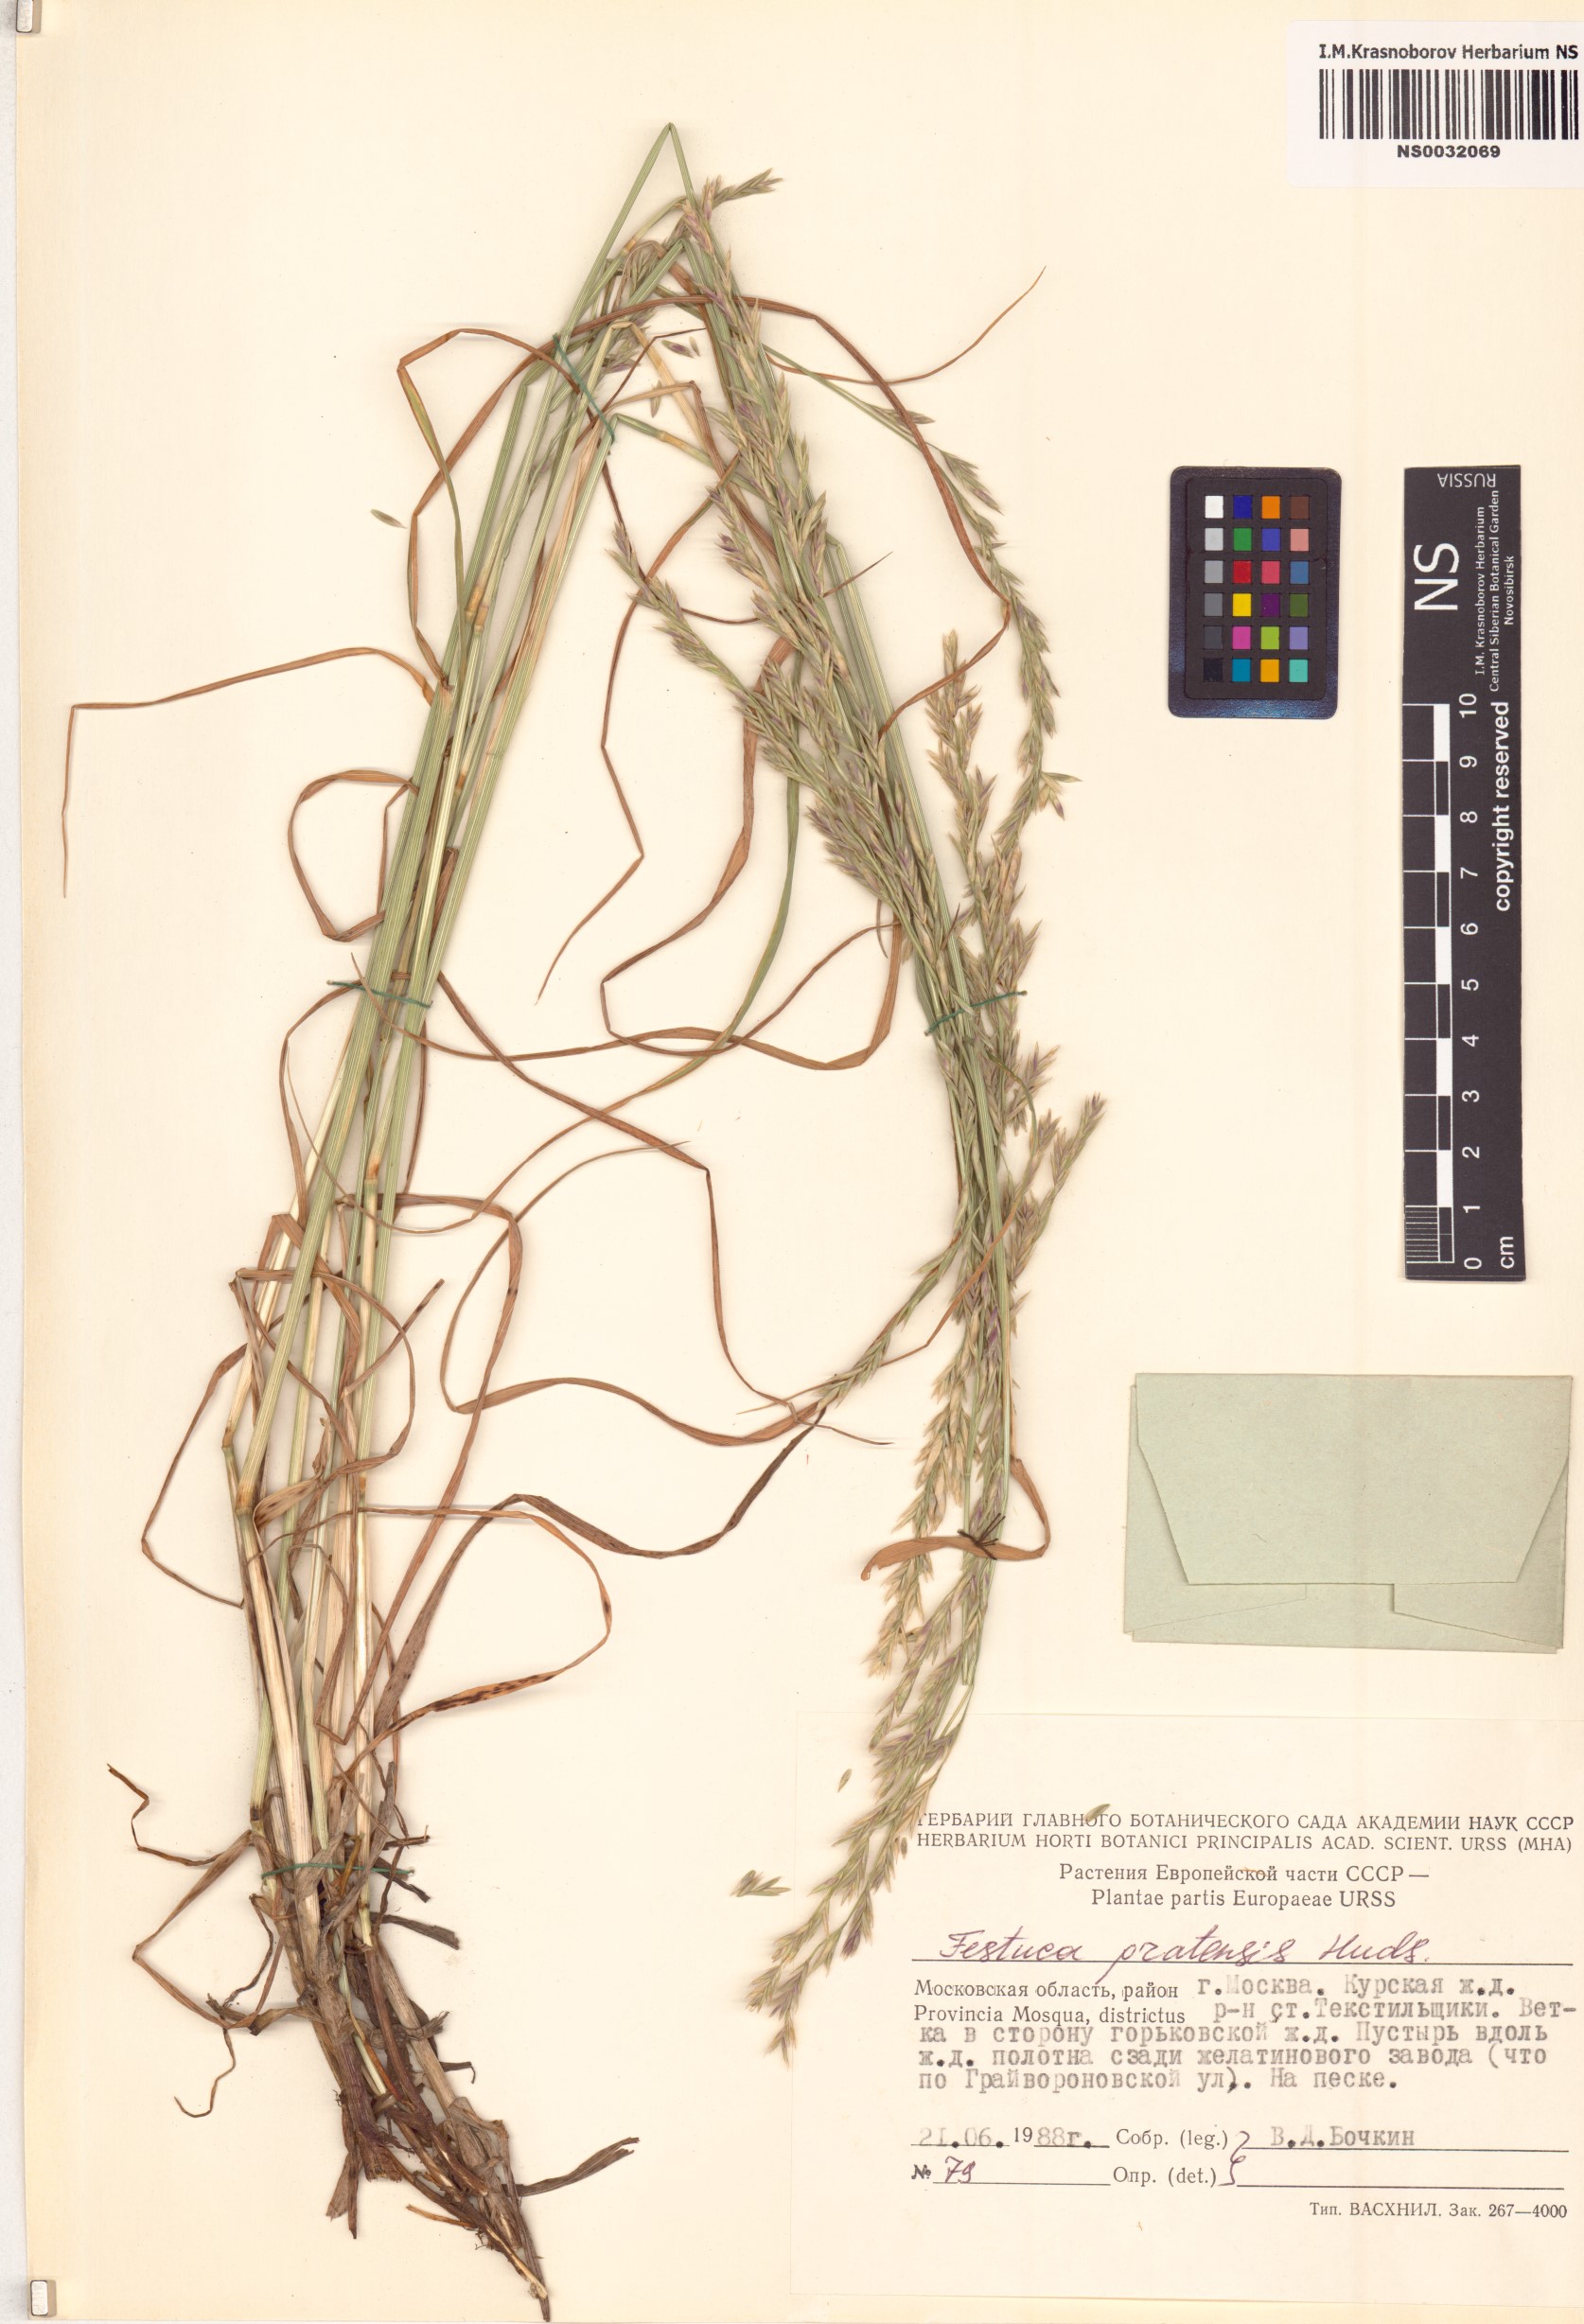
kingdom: Plantae
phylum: Tracheophyta
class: Liliopsida
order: Poales
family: Poaceae
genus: Lolium
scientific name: Lolium pratense
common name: Dover grass
